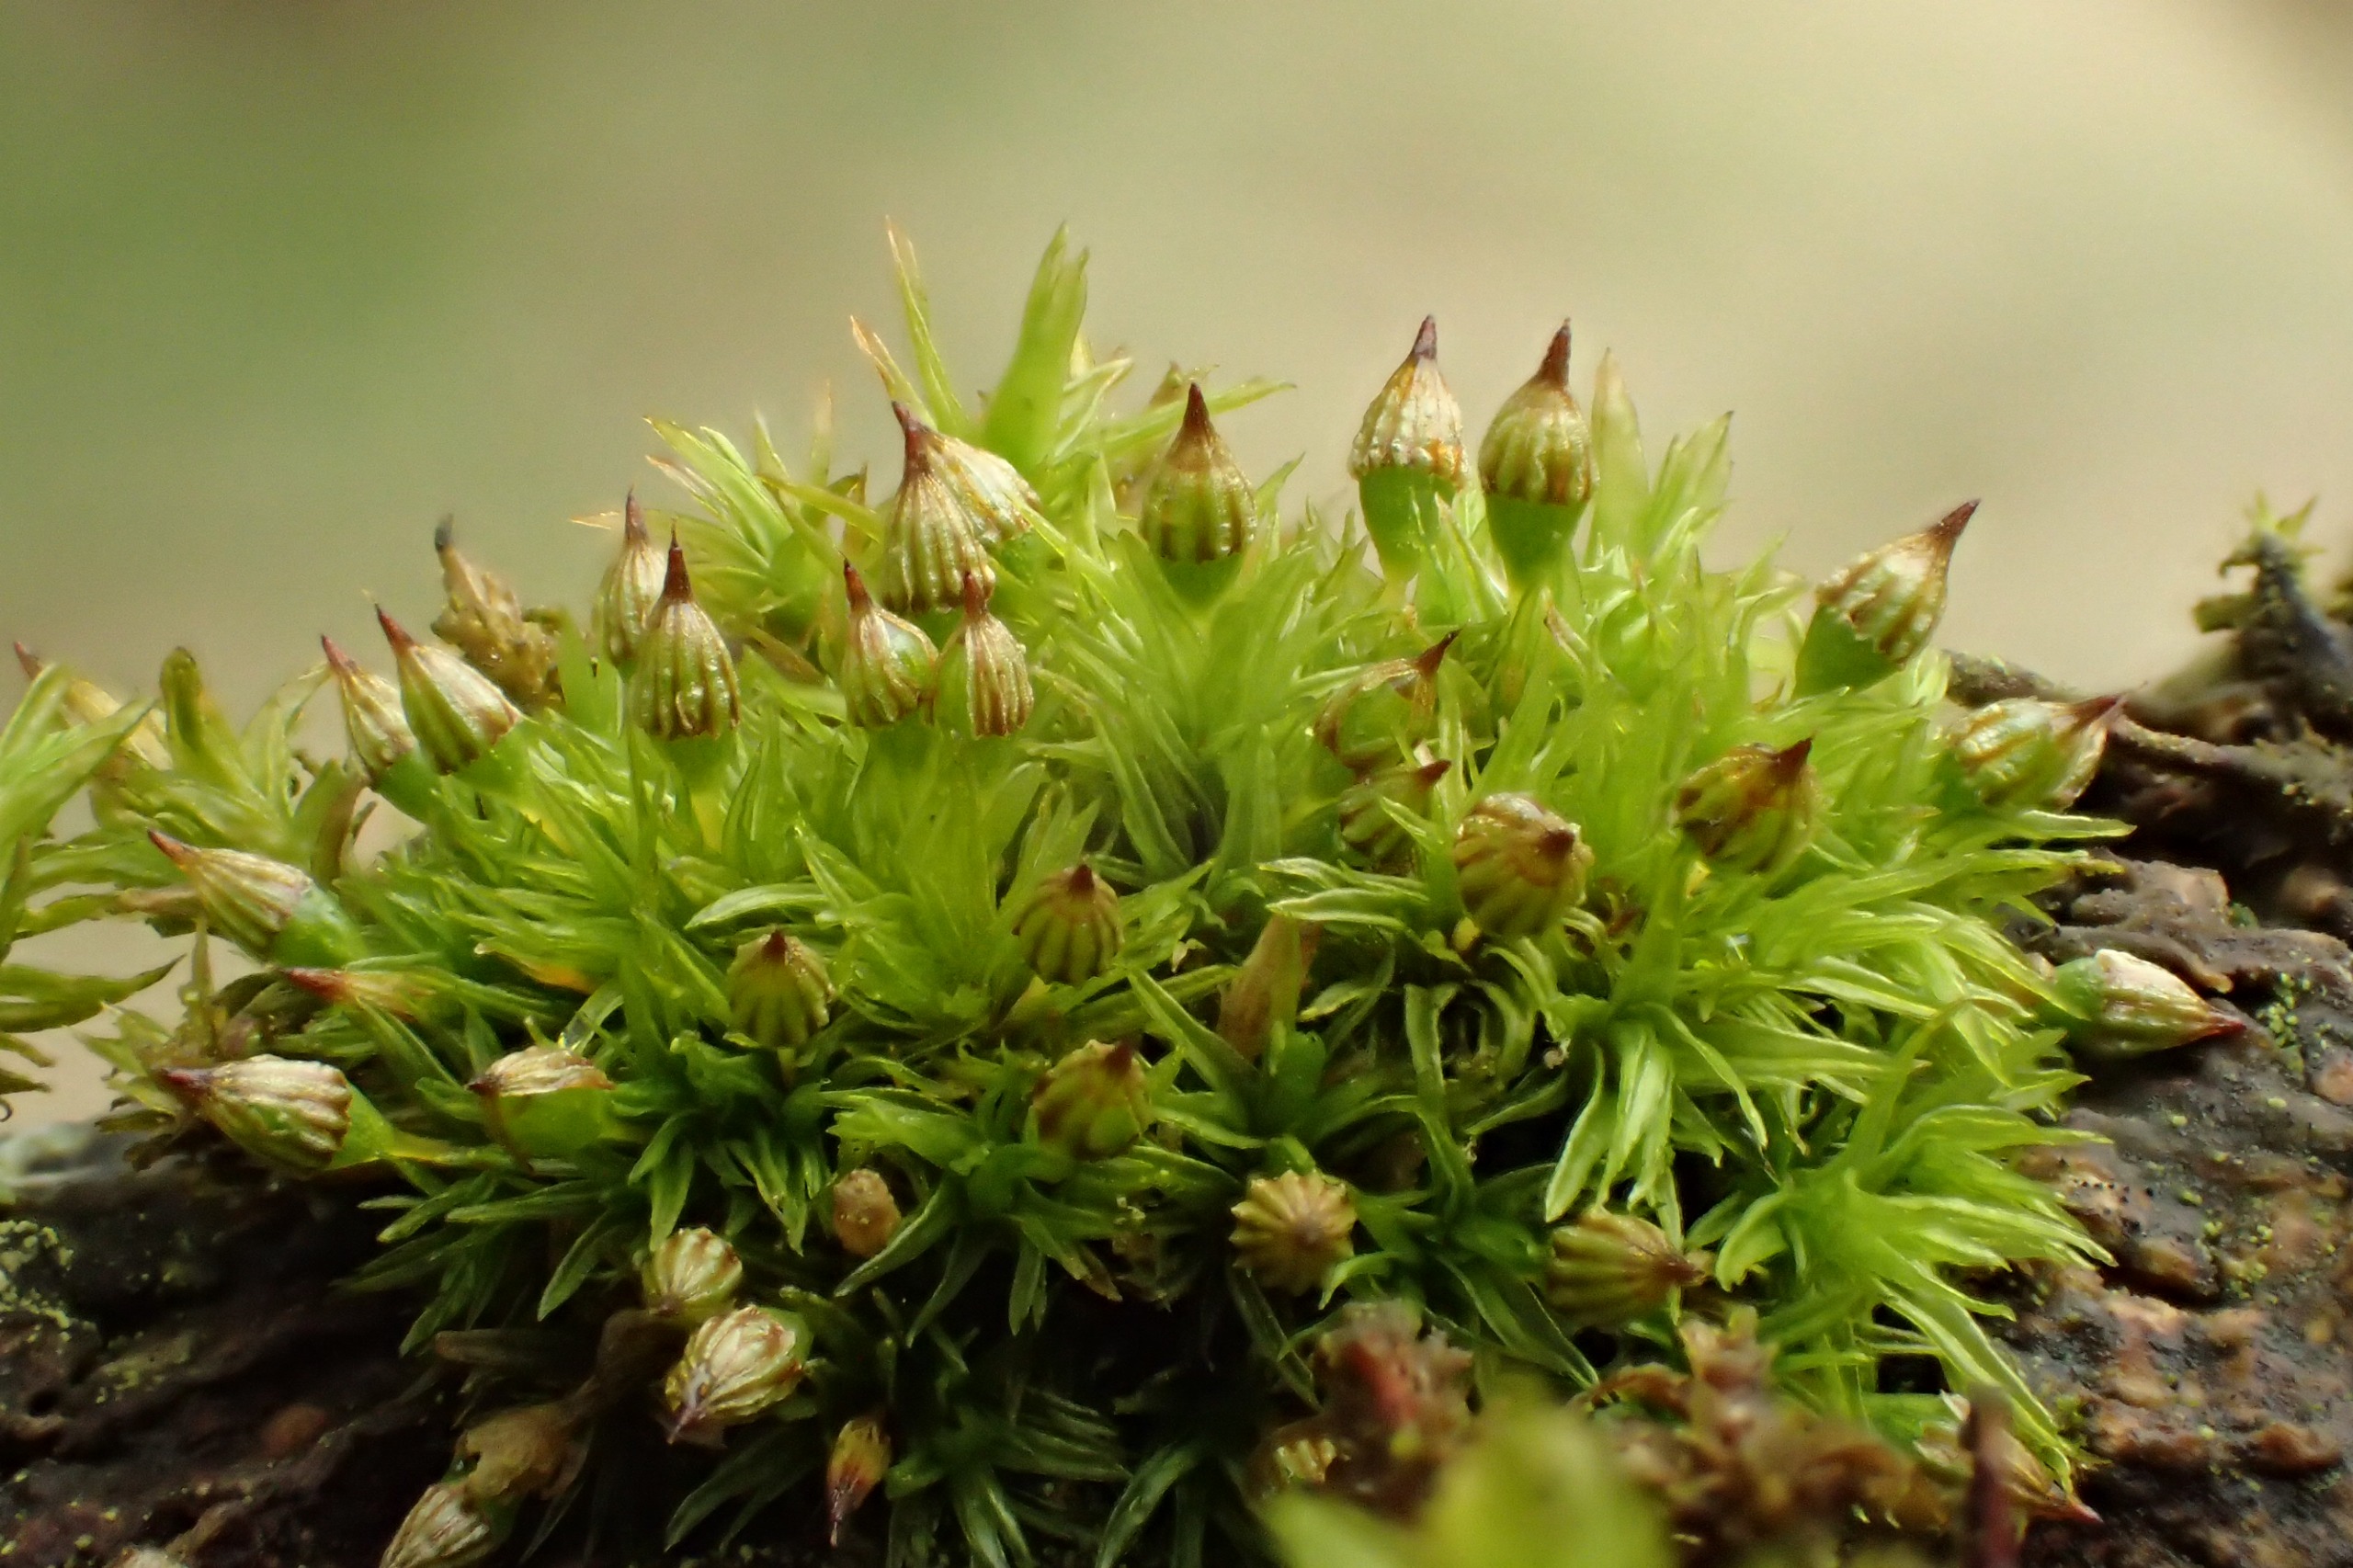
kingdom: Plantae
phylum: Bryophyta
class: Bryopsida
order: Orthotrichales
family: Orthotrichaceae
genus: Orthotrichum
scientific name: Orthotrichum pulchellum
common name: Smuk furehætte
